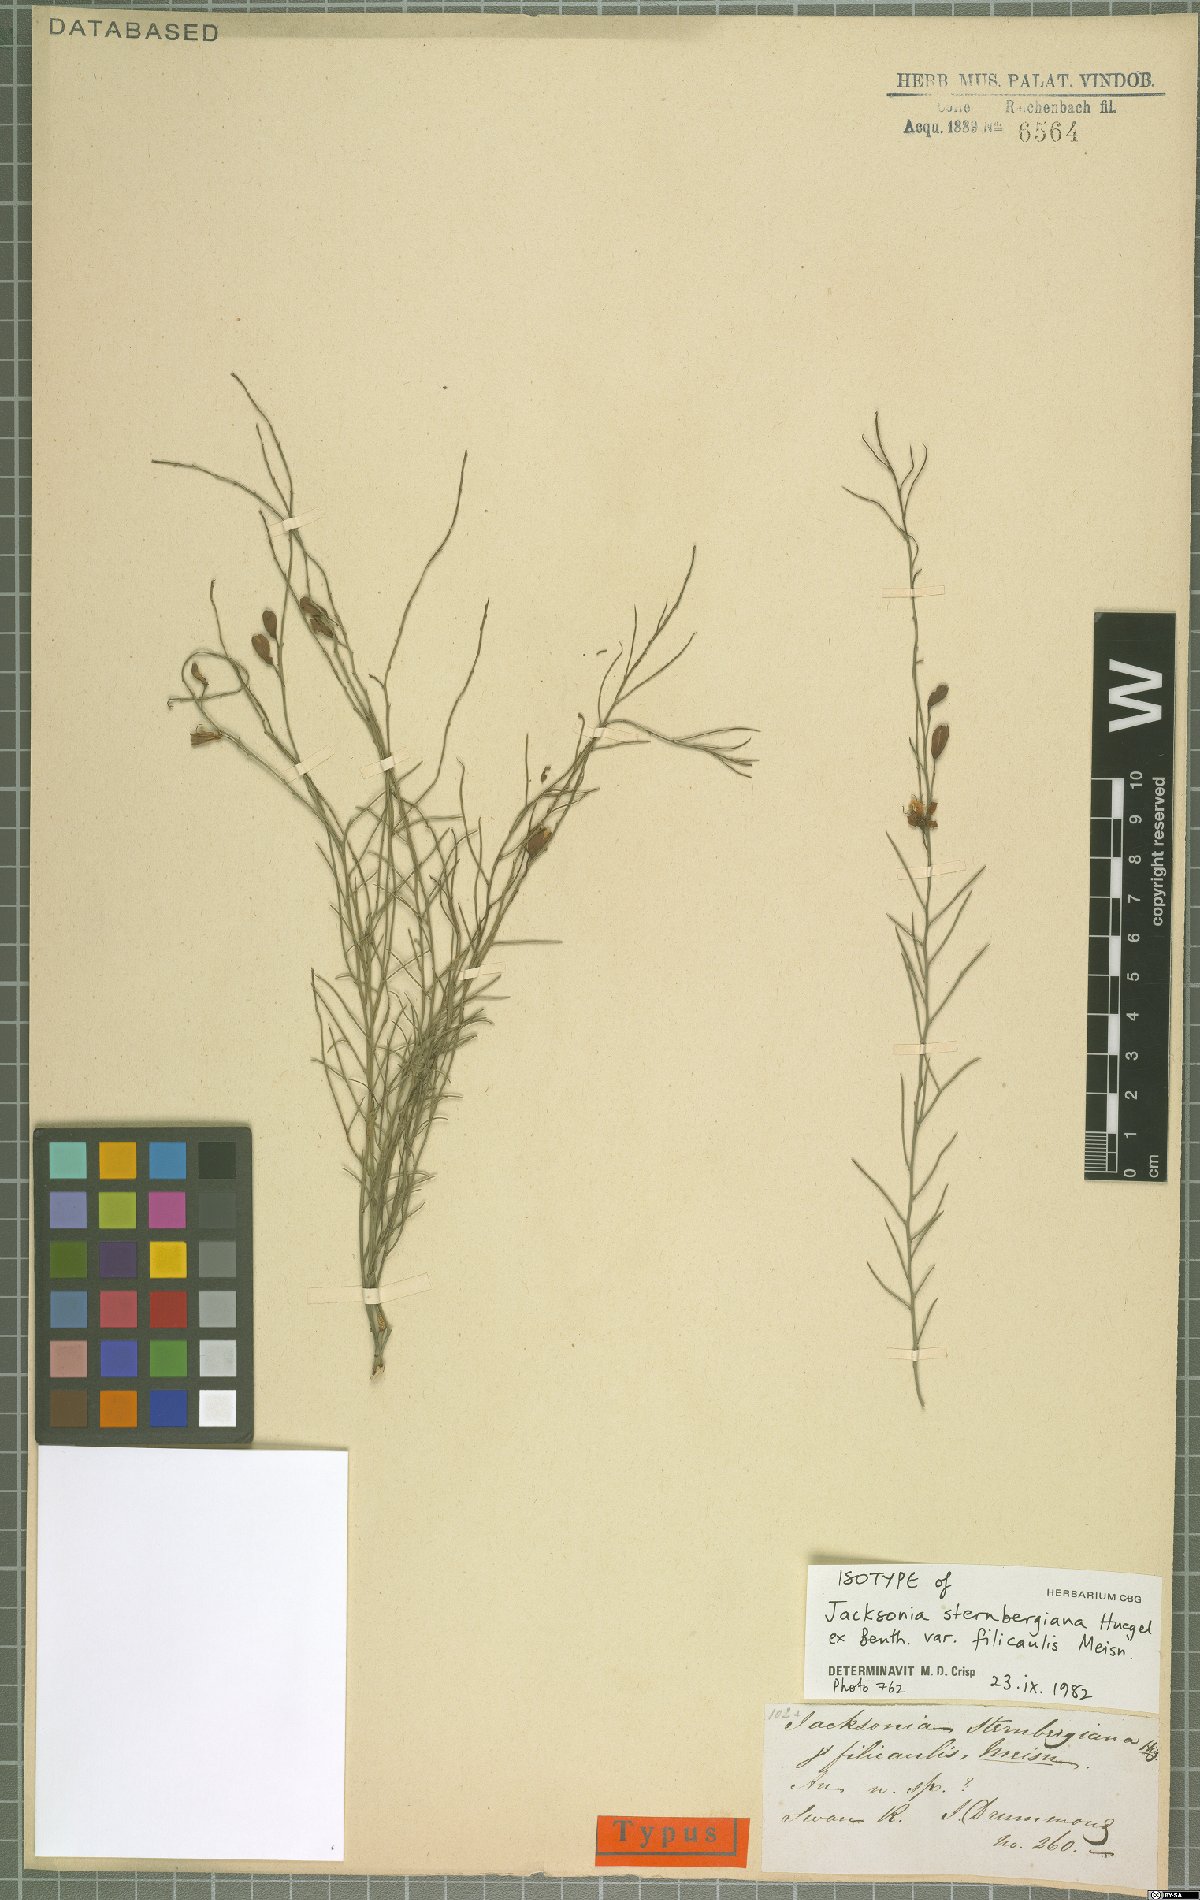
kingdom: Plantae
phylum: Tracheophyta
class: Magnoliopsida
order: Fabales
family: Fabaceae
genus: Jacksonia
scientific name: Jacksonia sternbergiana
